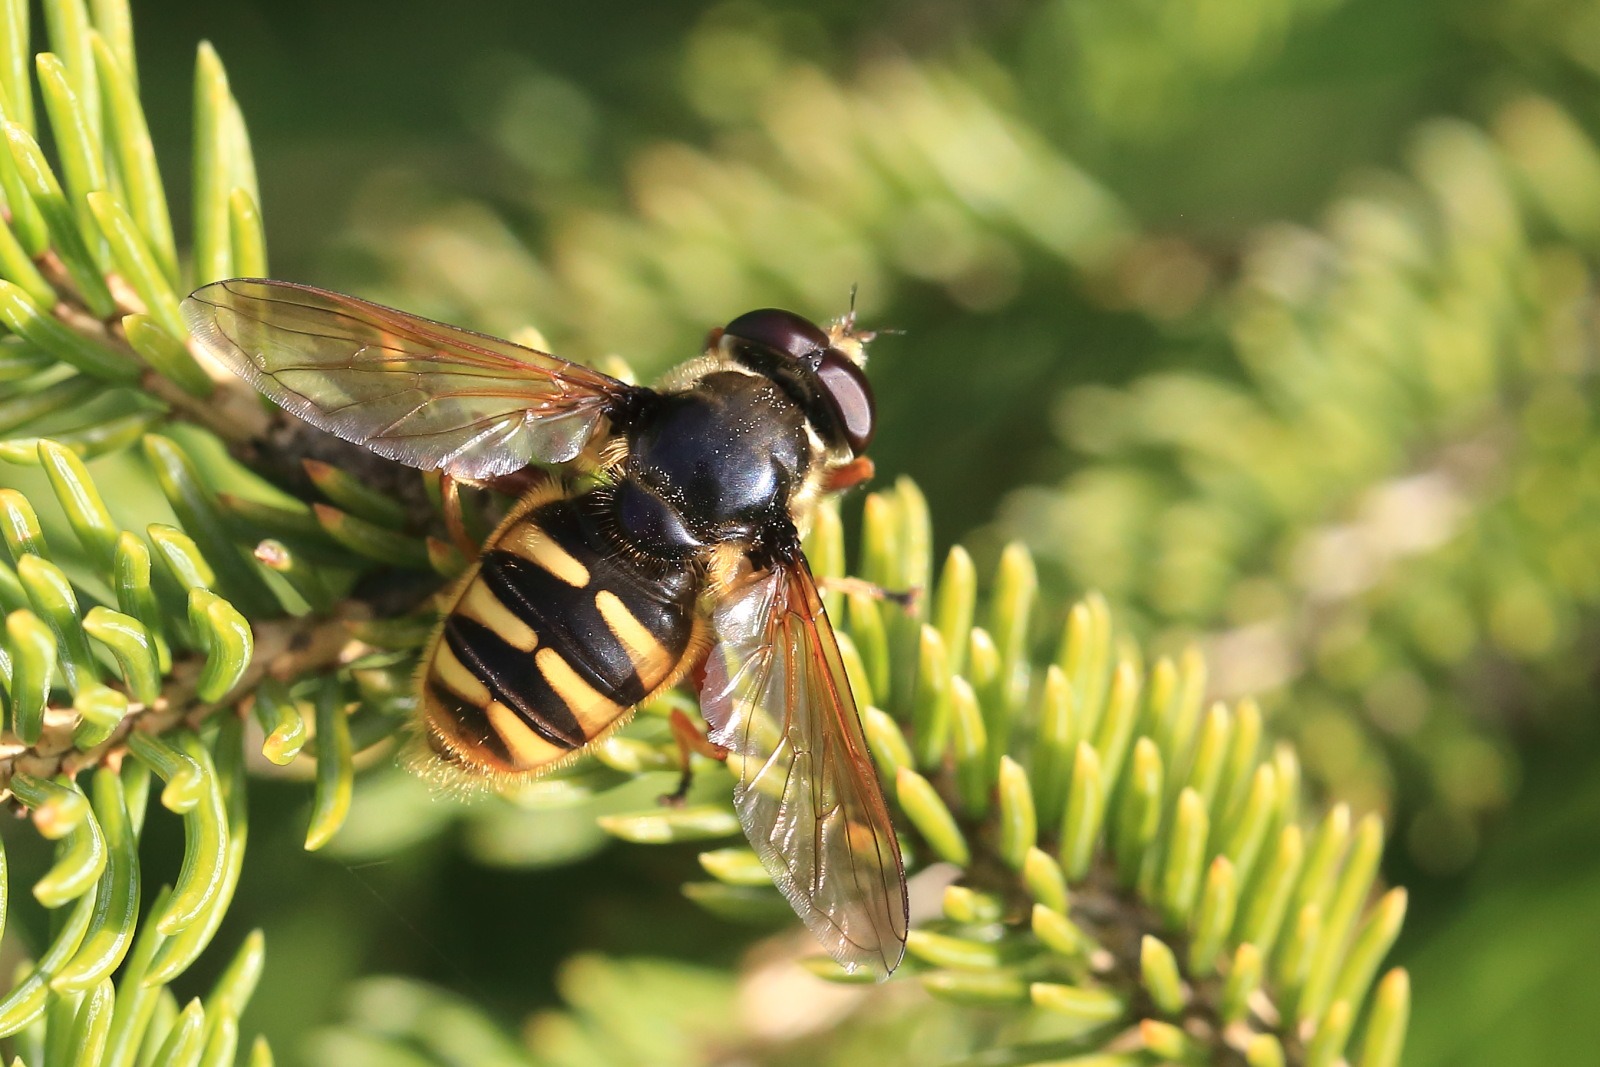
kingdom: Animalia
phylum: Arthropoda
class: Insecta
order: Diptera
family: Syrphidae
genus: Sericomyia
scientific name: Sericomyia silentis
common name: Tørve-silkesvirreflue
